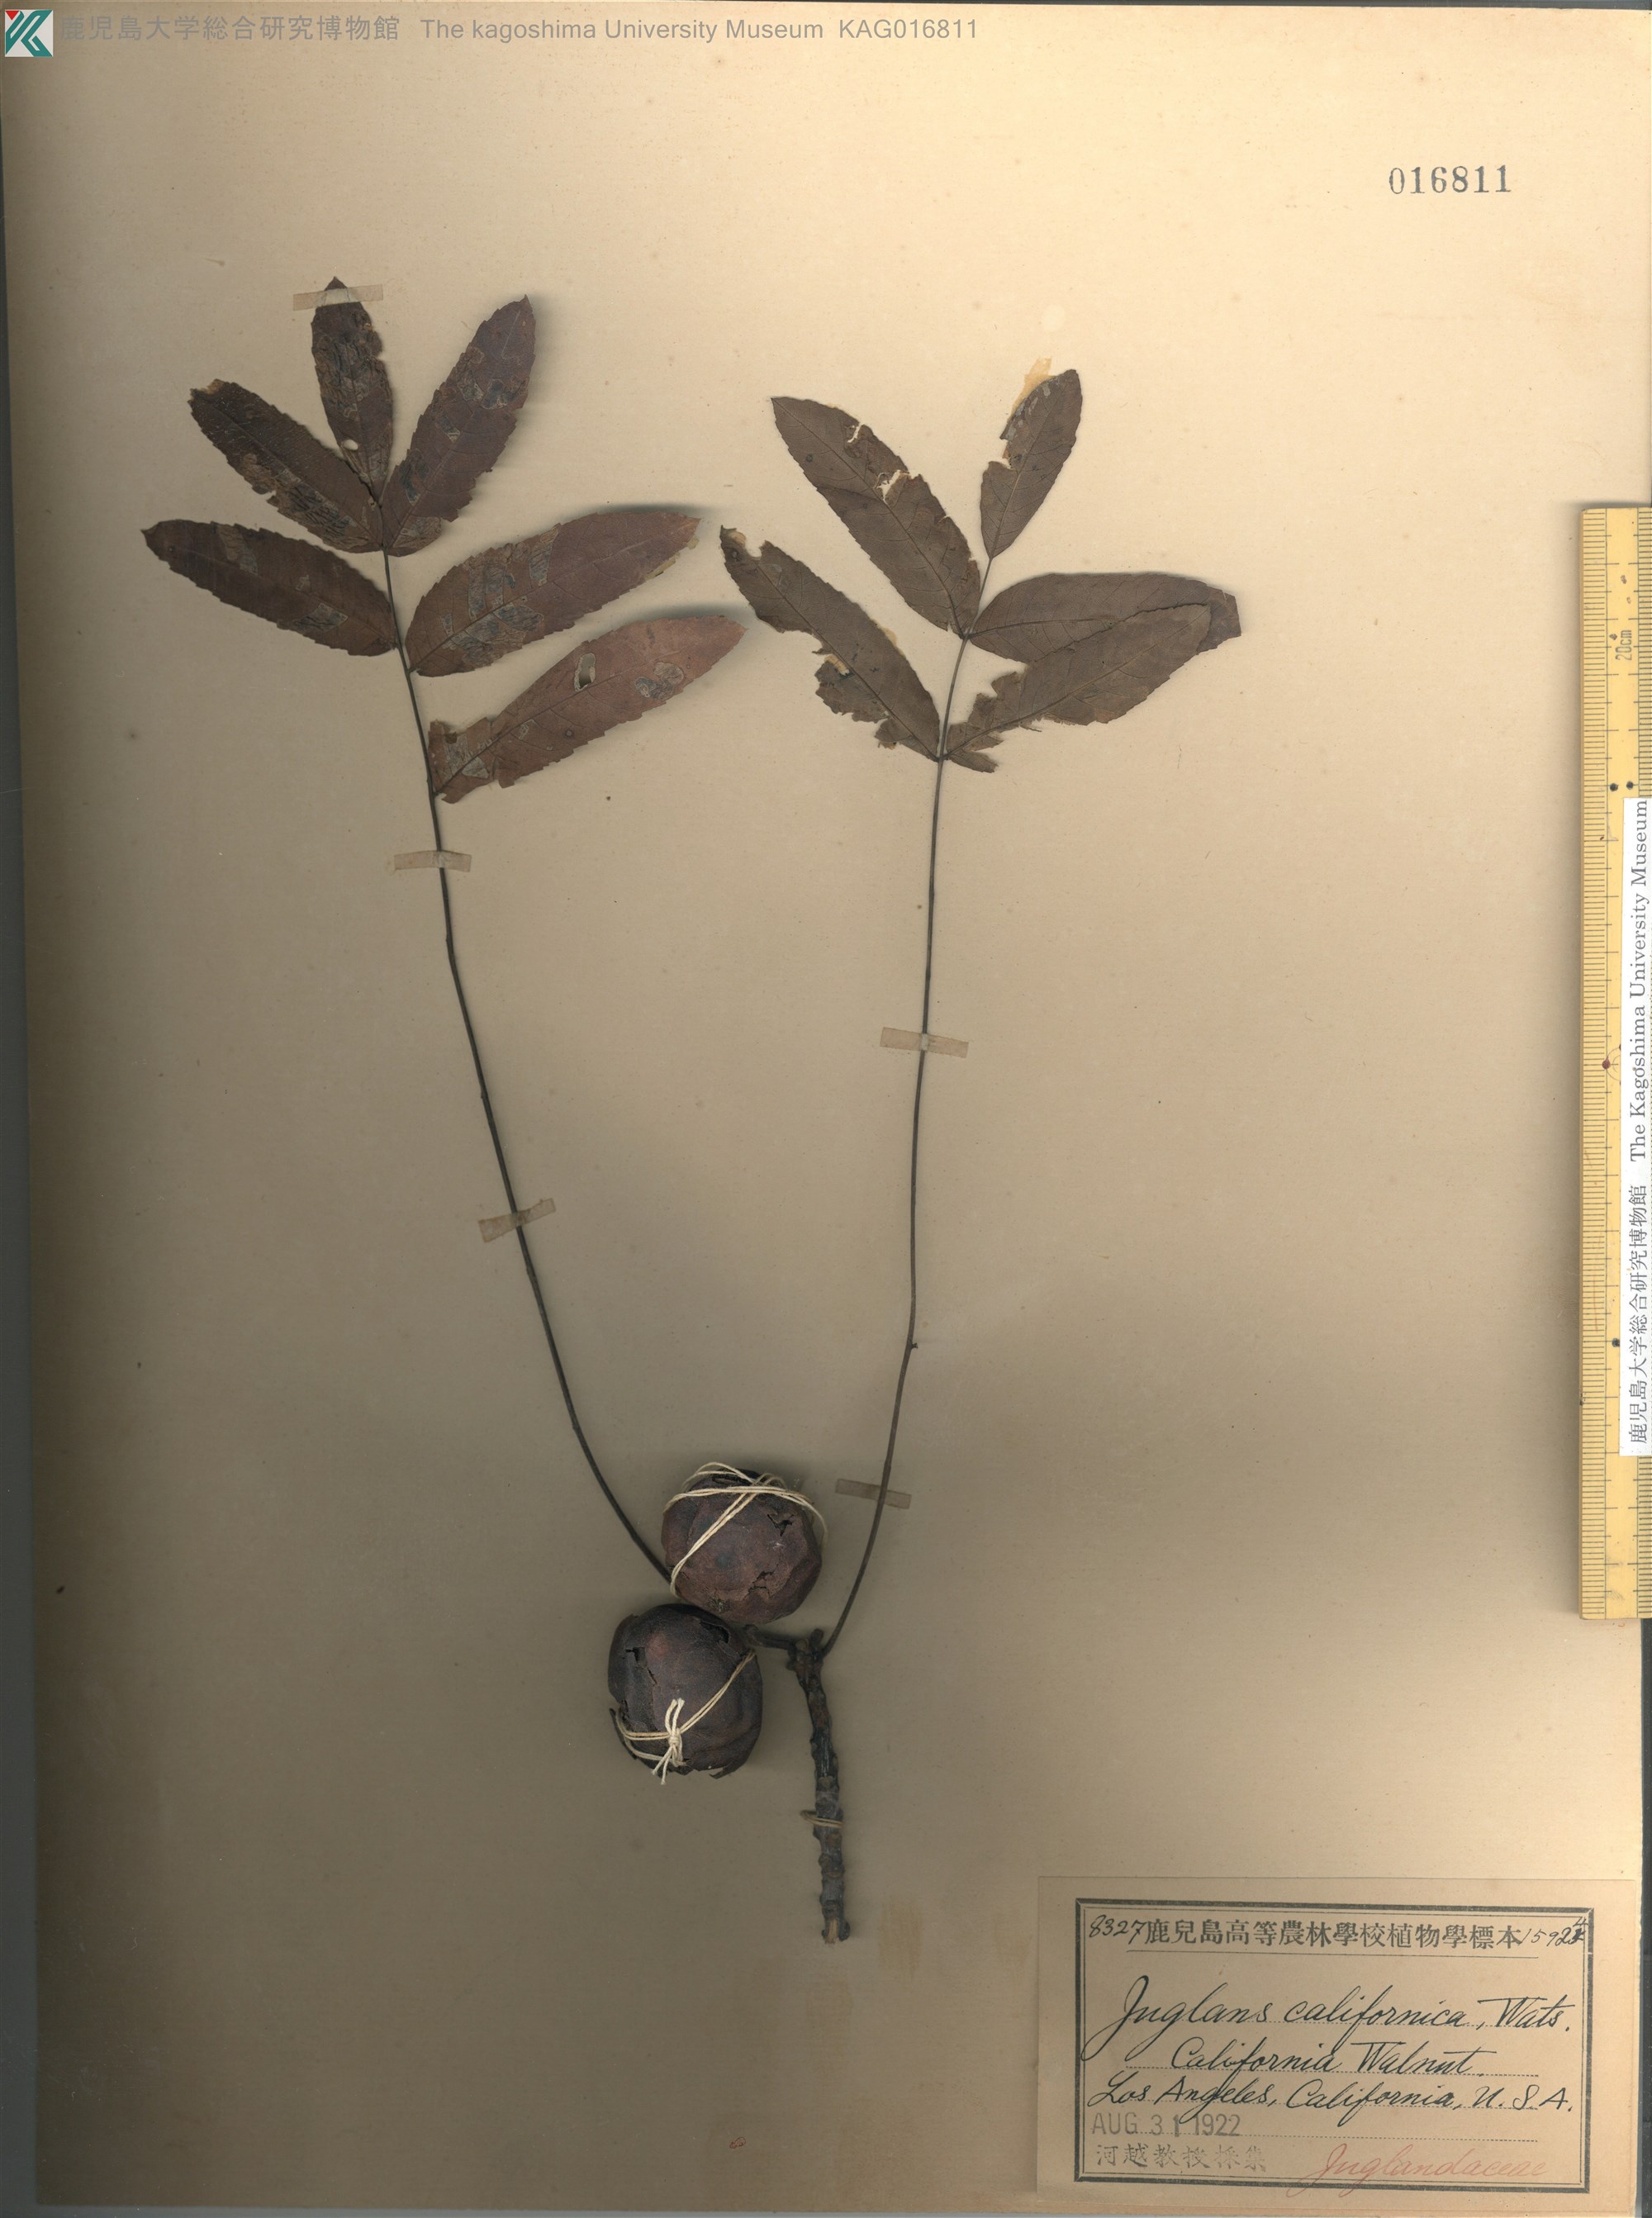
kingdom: Plantae
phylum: Tracheophyta
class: Magnoliopsida
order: Fagales
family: Juglandaceae
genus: Juglans
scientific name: Juglans californica
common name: Southern california black walnut
